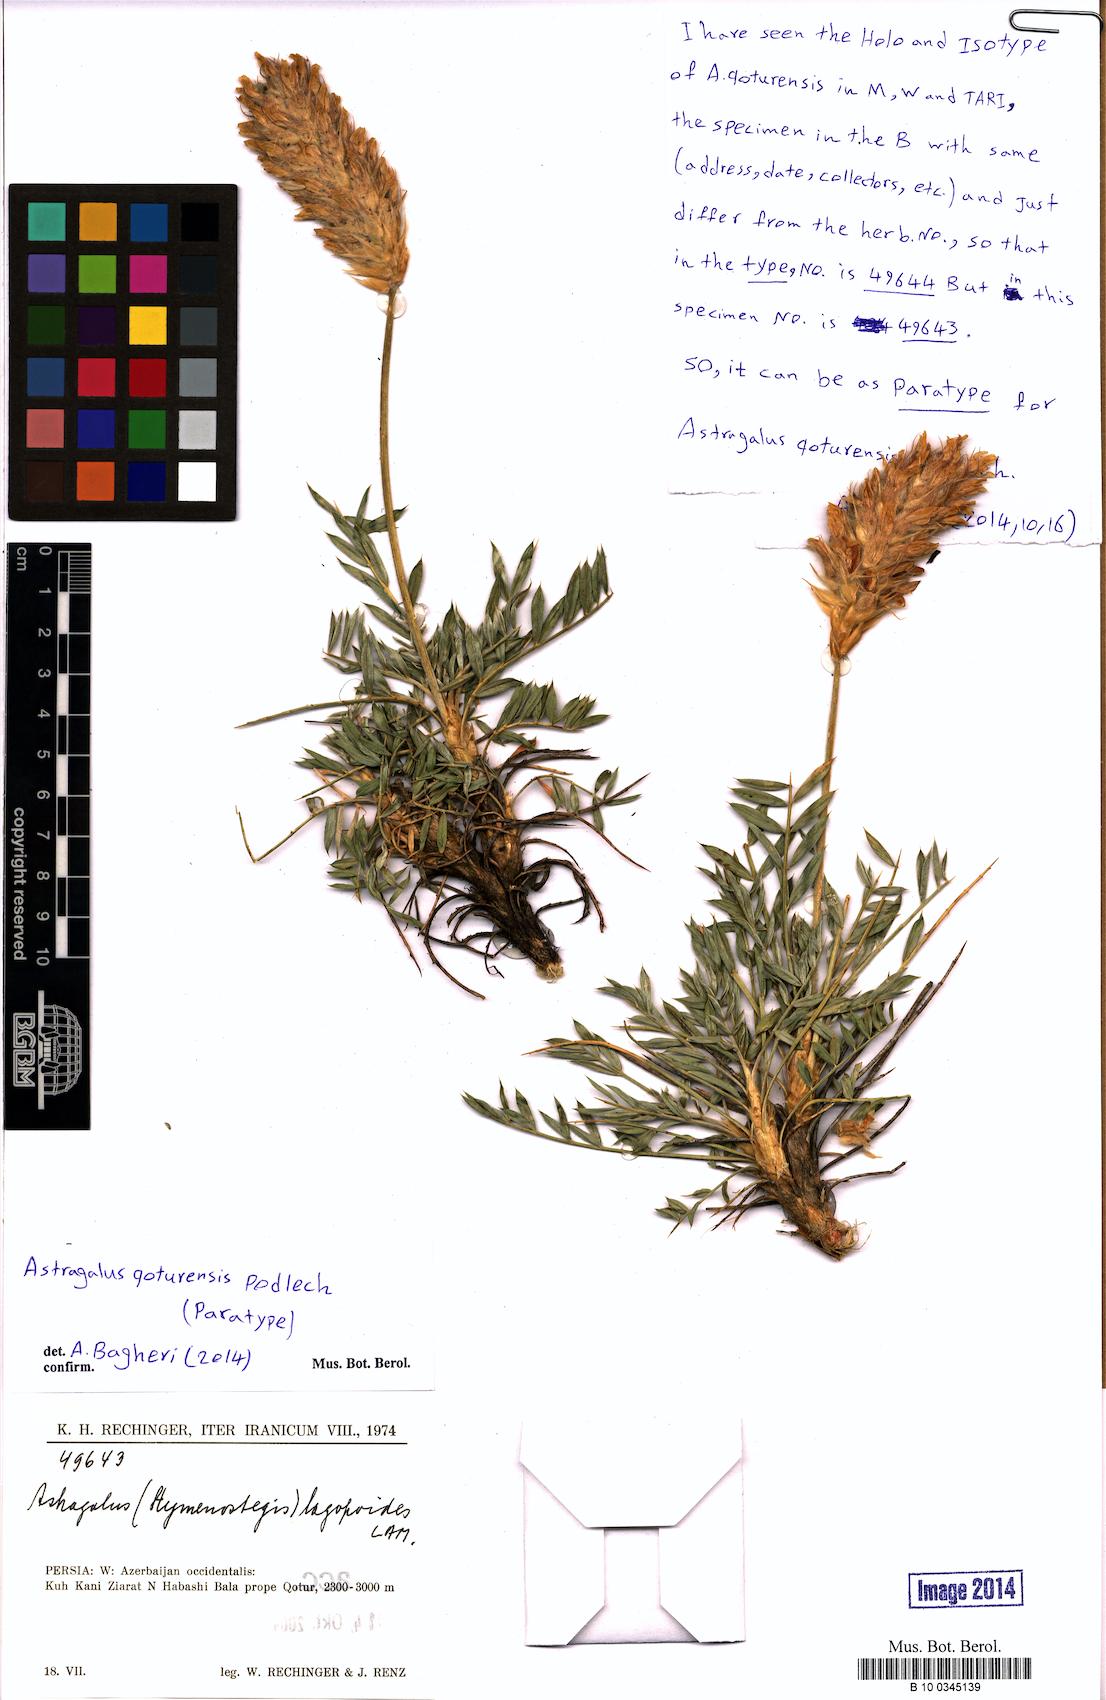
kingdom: Plantae
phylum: Tracheophyta
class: Magnoliopsida
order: Fabales
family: Fabaceae
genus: Astragalus
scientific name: Astragalus qoturensis
